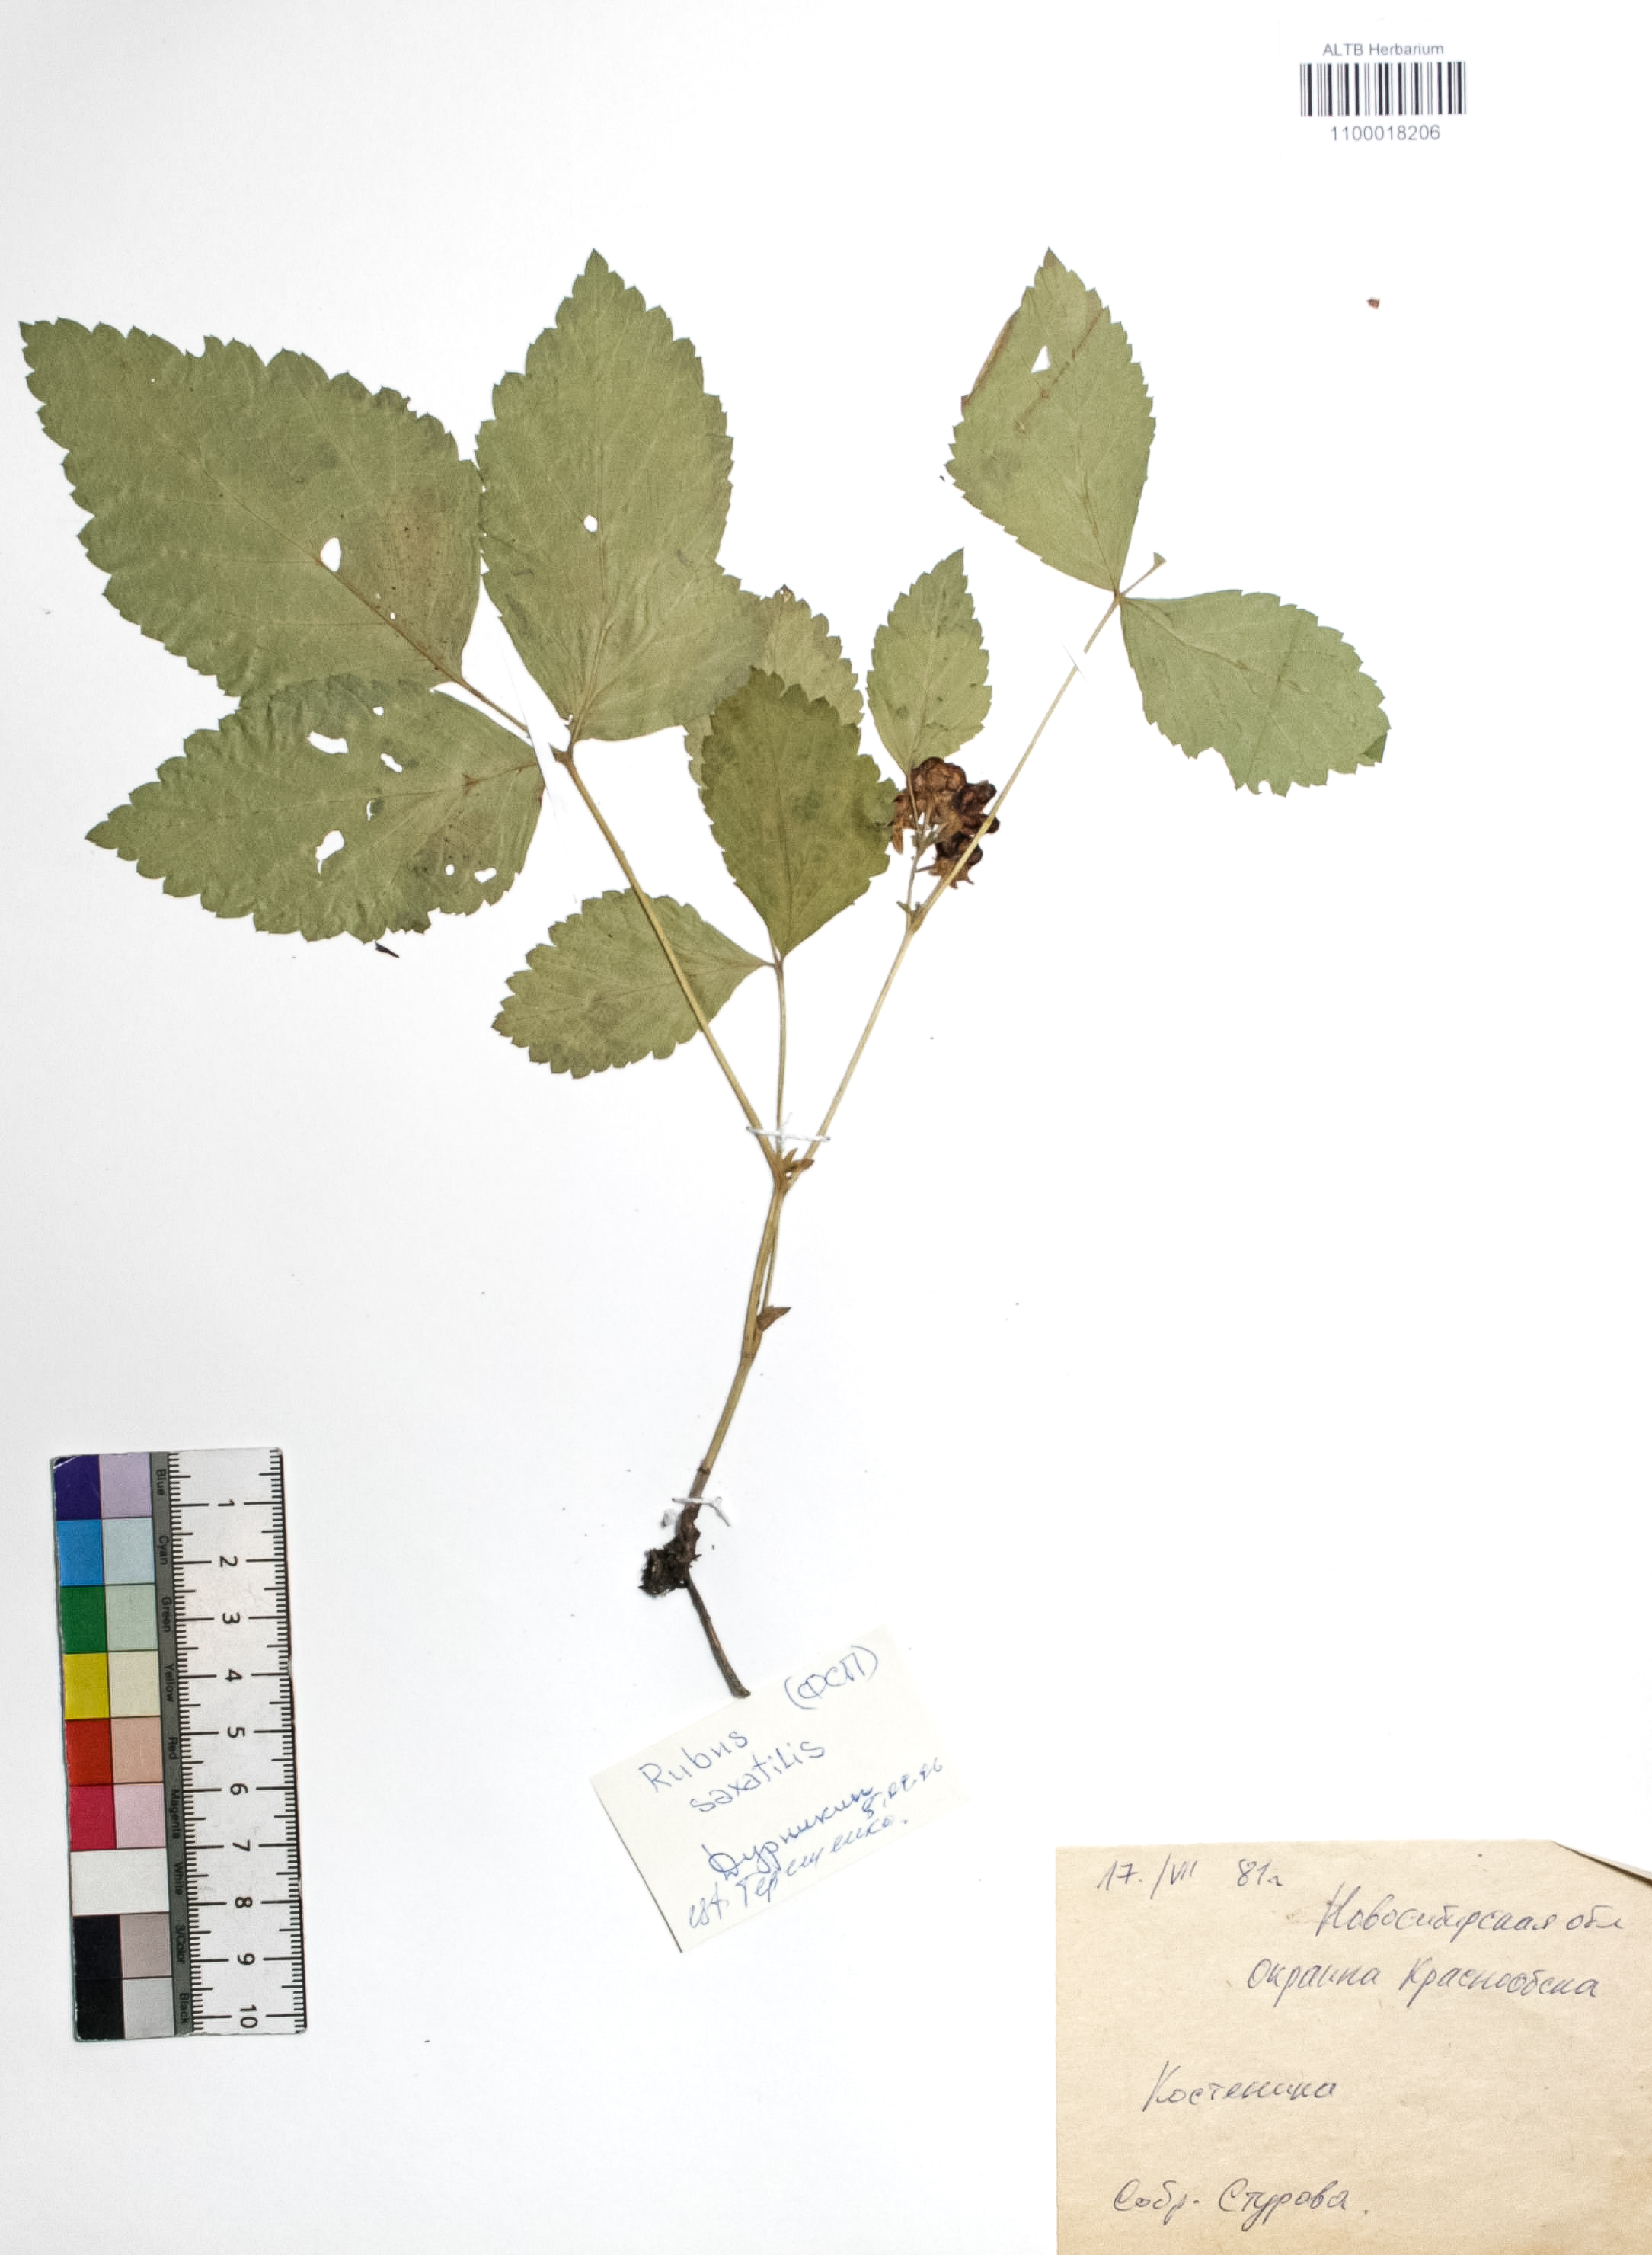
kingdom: Plantae
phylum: Tracheophyta
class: Magnoliopsida
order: Rosales
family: Rosaceae
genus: Rubus
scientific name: Rubus saxatilis
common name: Stone bramble
